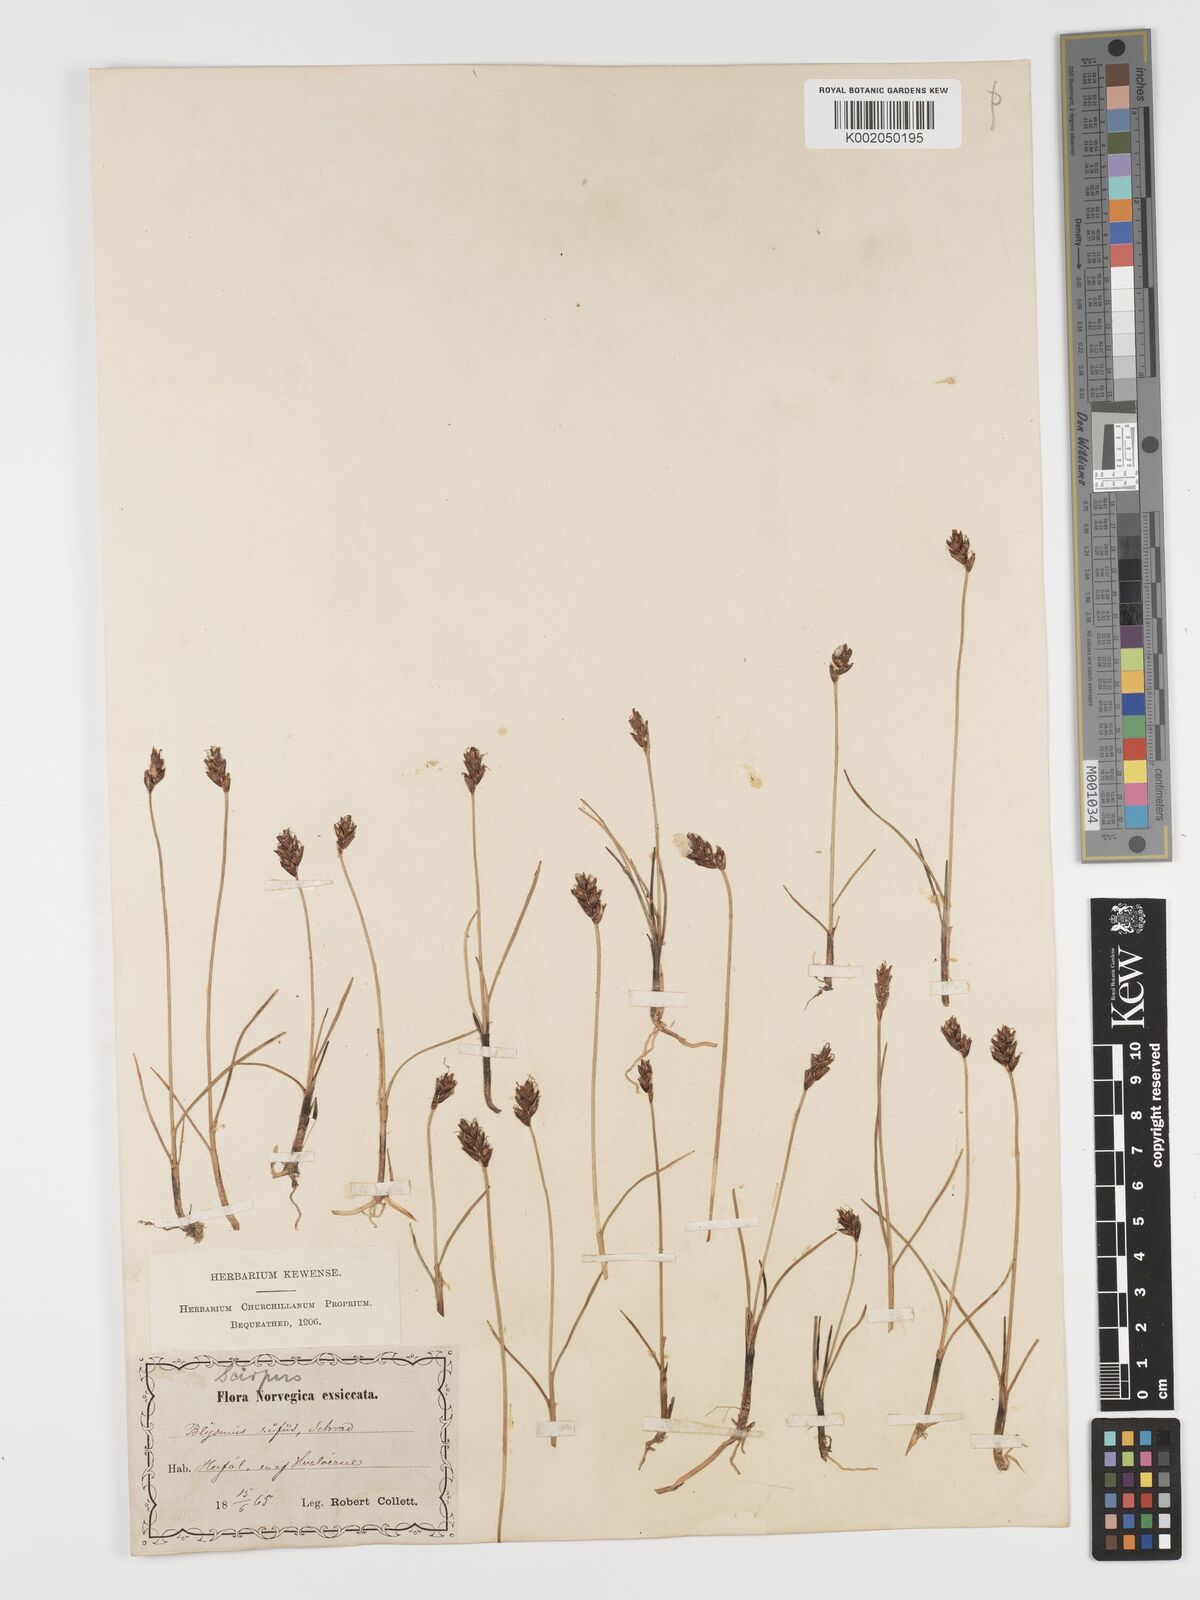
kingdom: Plantae
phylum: Tracheophyta
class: Liliopsida
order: Poales
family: Cyperaceae
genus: Blysmus
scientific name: Blysmus rufus
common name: Saltmarsh flat-sedge
